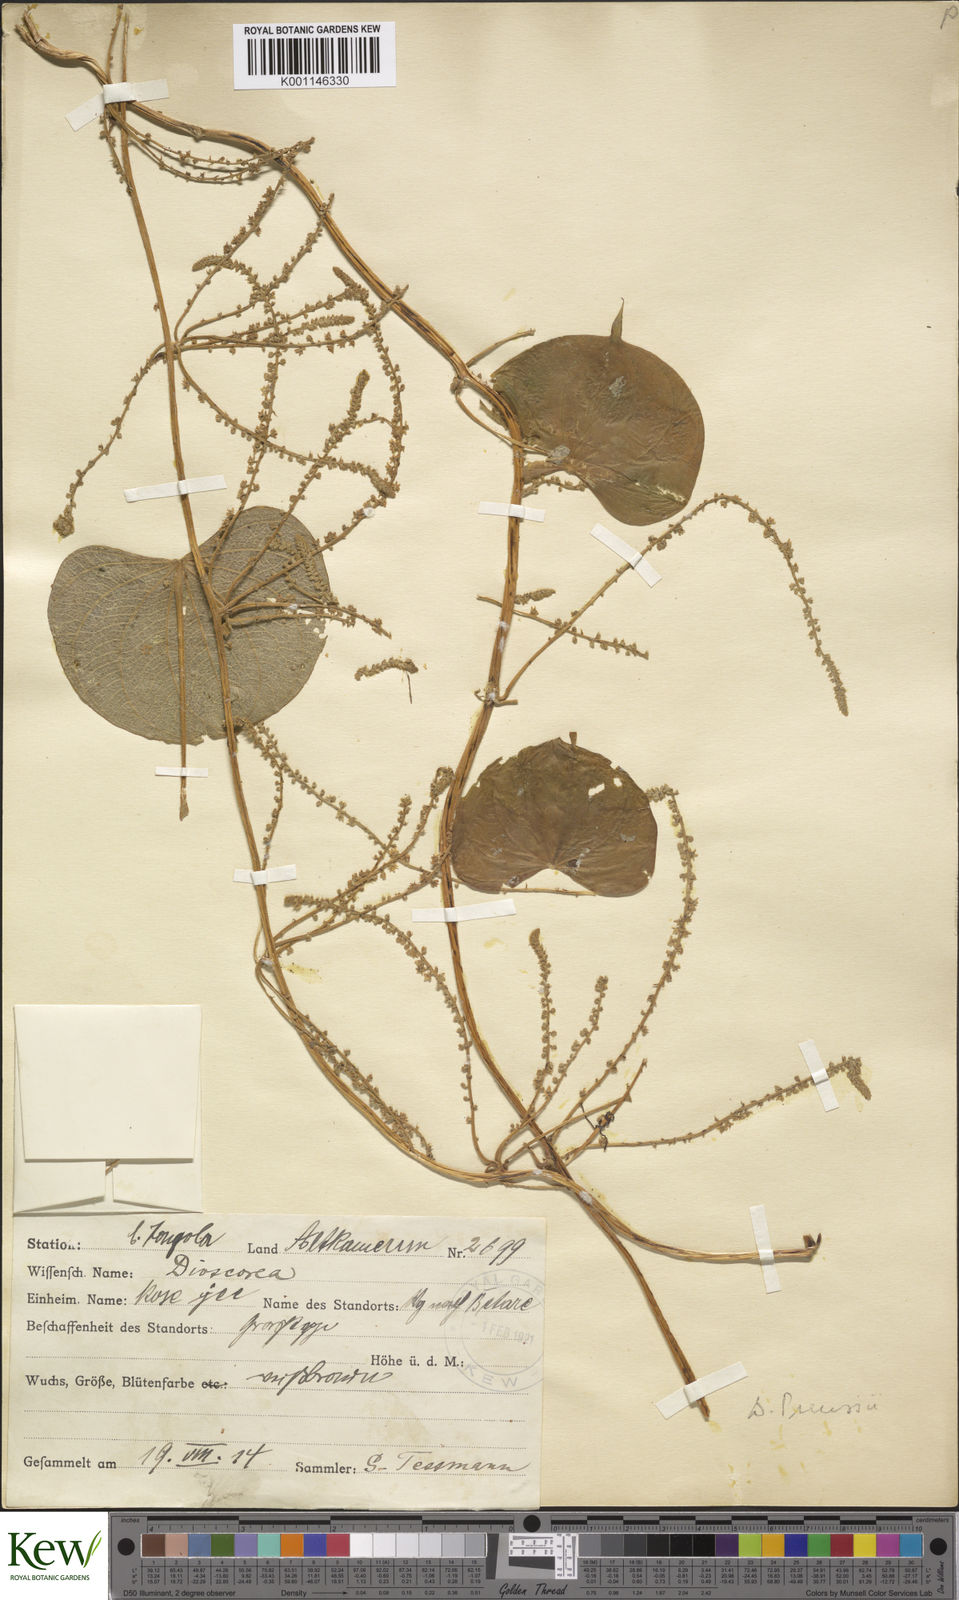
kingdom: Plantae
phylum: Tracheophyta
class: Liliopsida
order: Dioscoreales
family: Dioscoreaceae
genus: Dioscorea
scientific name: Dioscorea preussii
